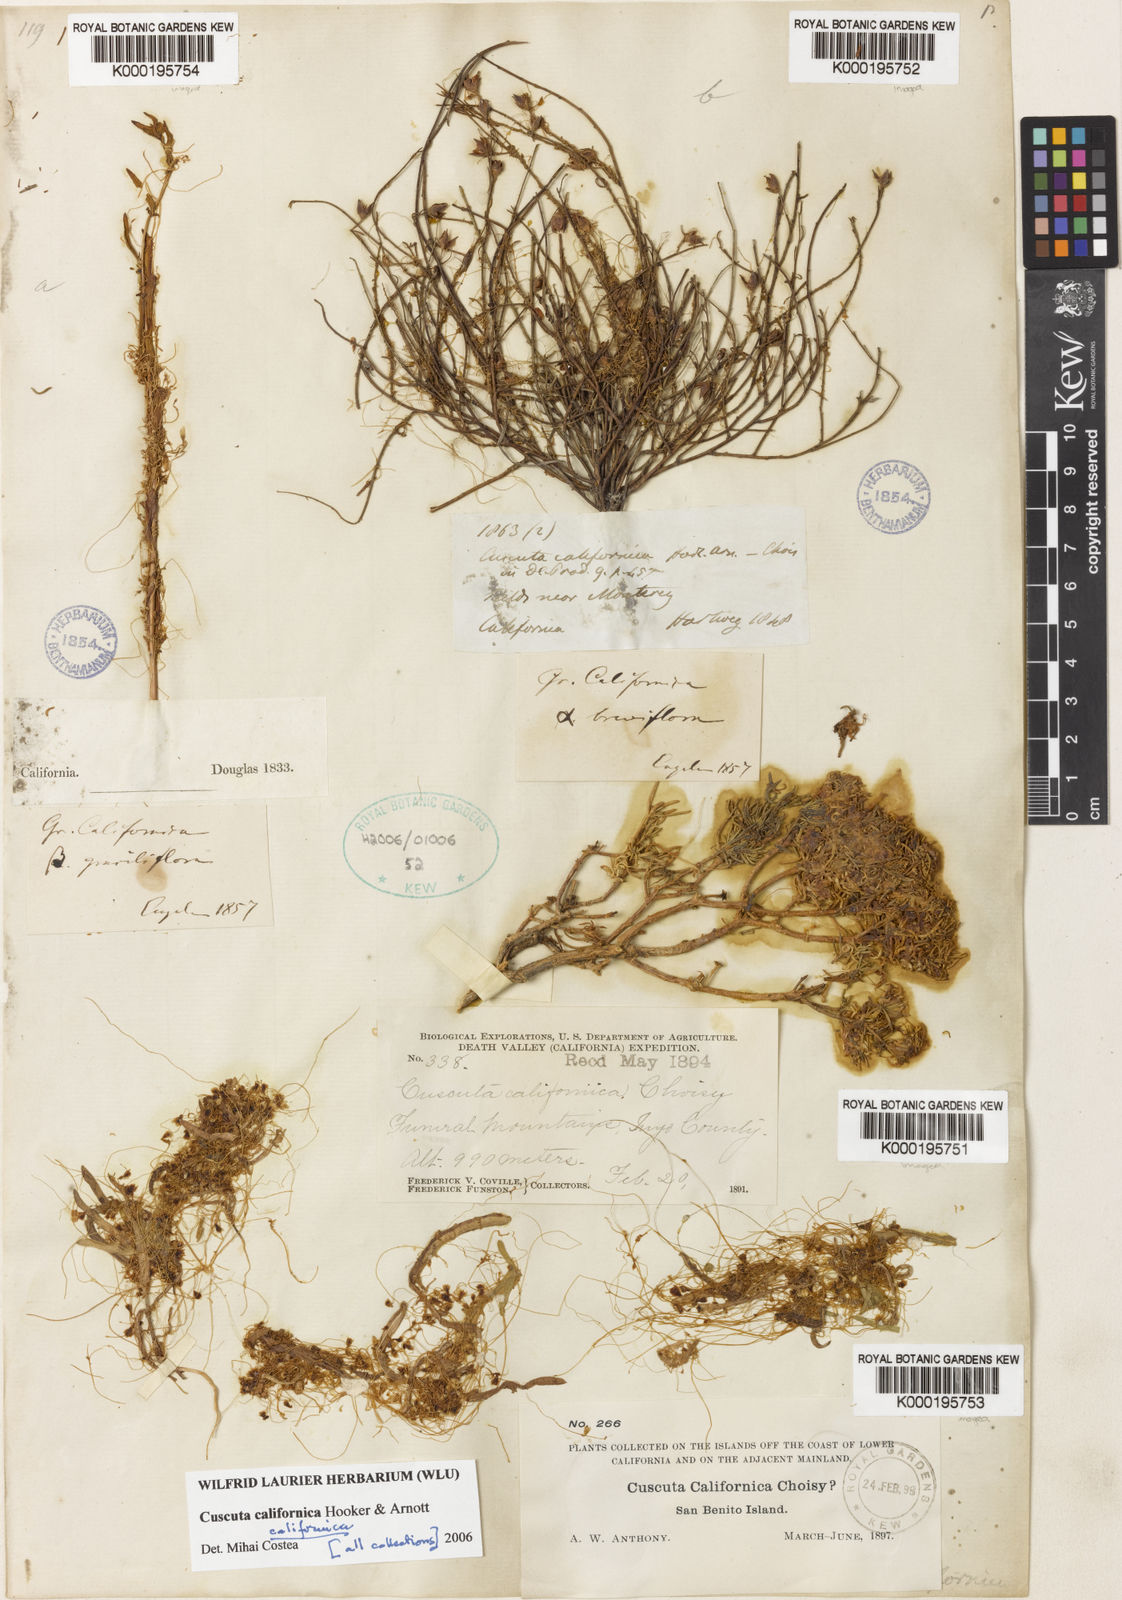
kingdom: Plantae
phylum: Tracheophyta
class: Magnoliopsida
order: Solanales
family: Convolvulaceae
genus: Cuscuta
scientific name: Cuscuta californica
